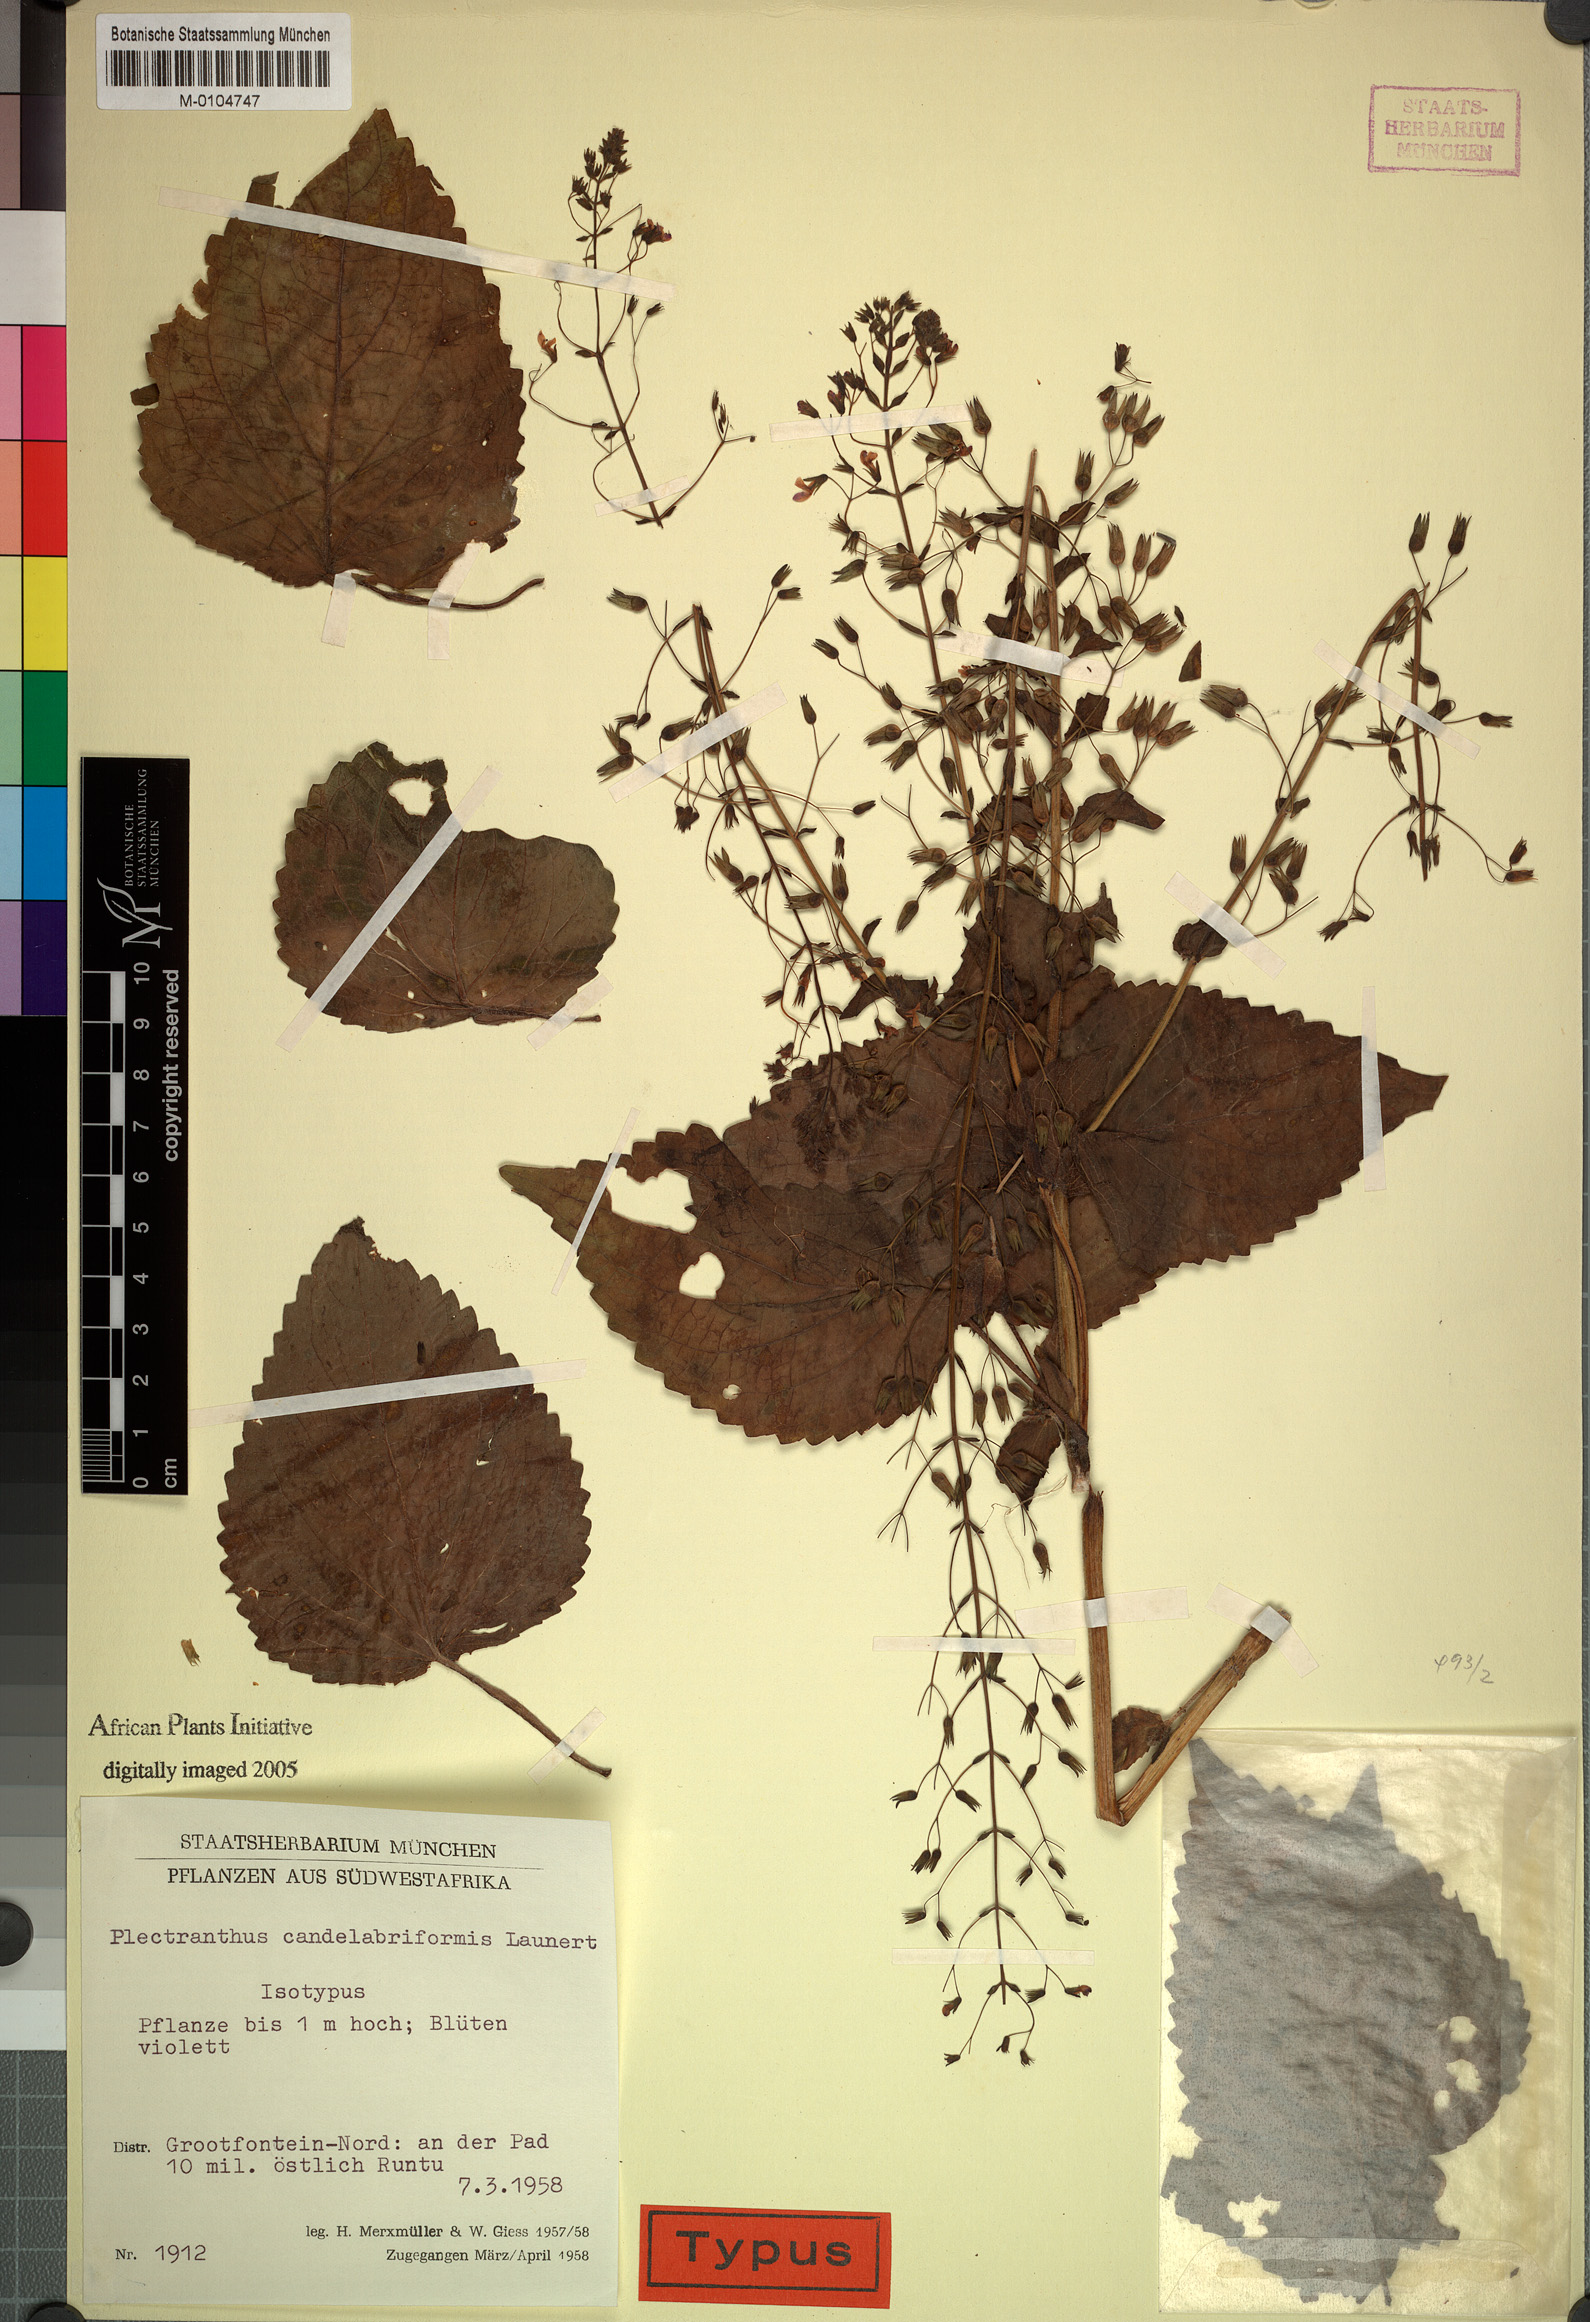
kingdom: Plantae
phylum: Tracheophyta
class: Magnoliopsida
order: Lamiales
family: Lamiaceae
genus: Equilabium
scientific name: Equilabium candelabriforme
